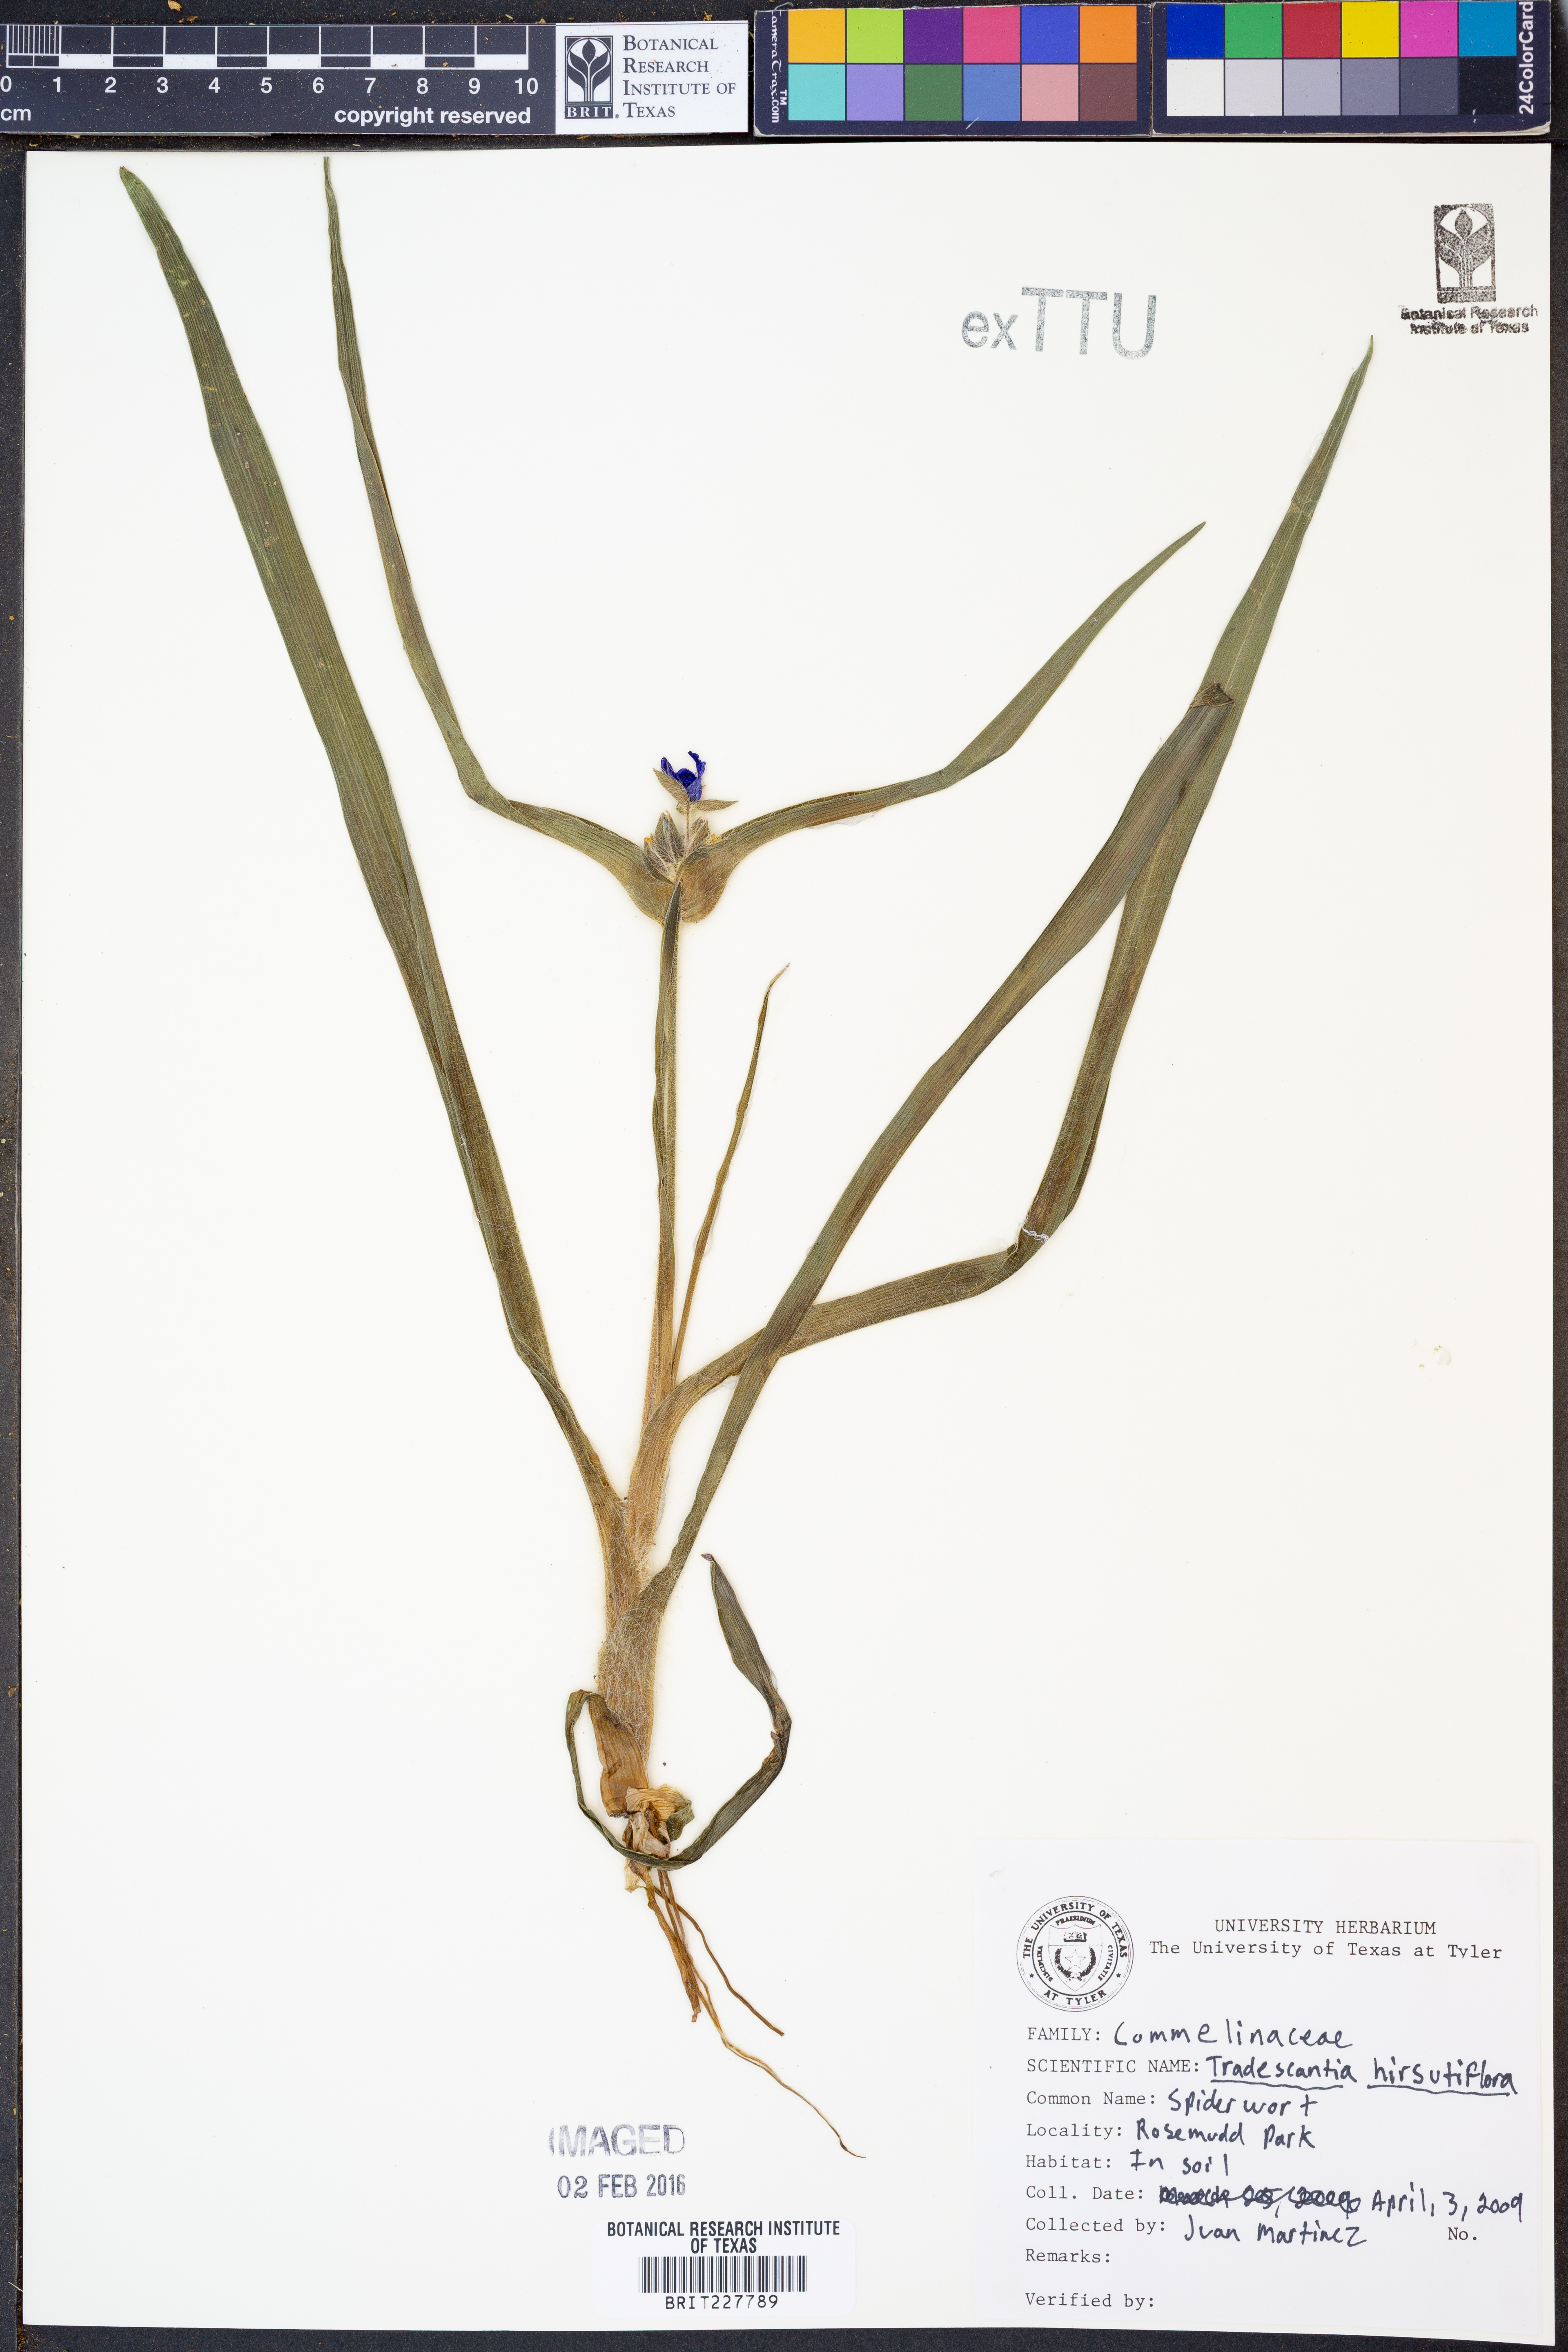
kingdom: Plantae
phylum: Tracheophyta
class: Liliopsida
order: Commelinales
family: Commelinaceae
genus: Tradescantia
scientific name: Tradescantia hirsutiflora
